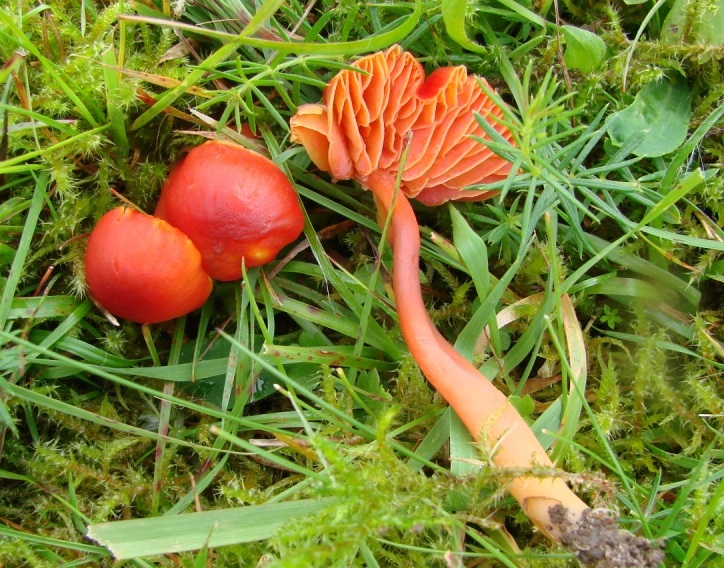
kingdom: Fungi
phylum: Basidiomycota
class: Agaricomycetes
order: Agaricales
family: Hygrophoraceae
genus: Hygrocybe
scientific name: Hygrocybe coccinea
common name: cinnober-vokshat
